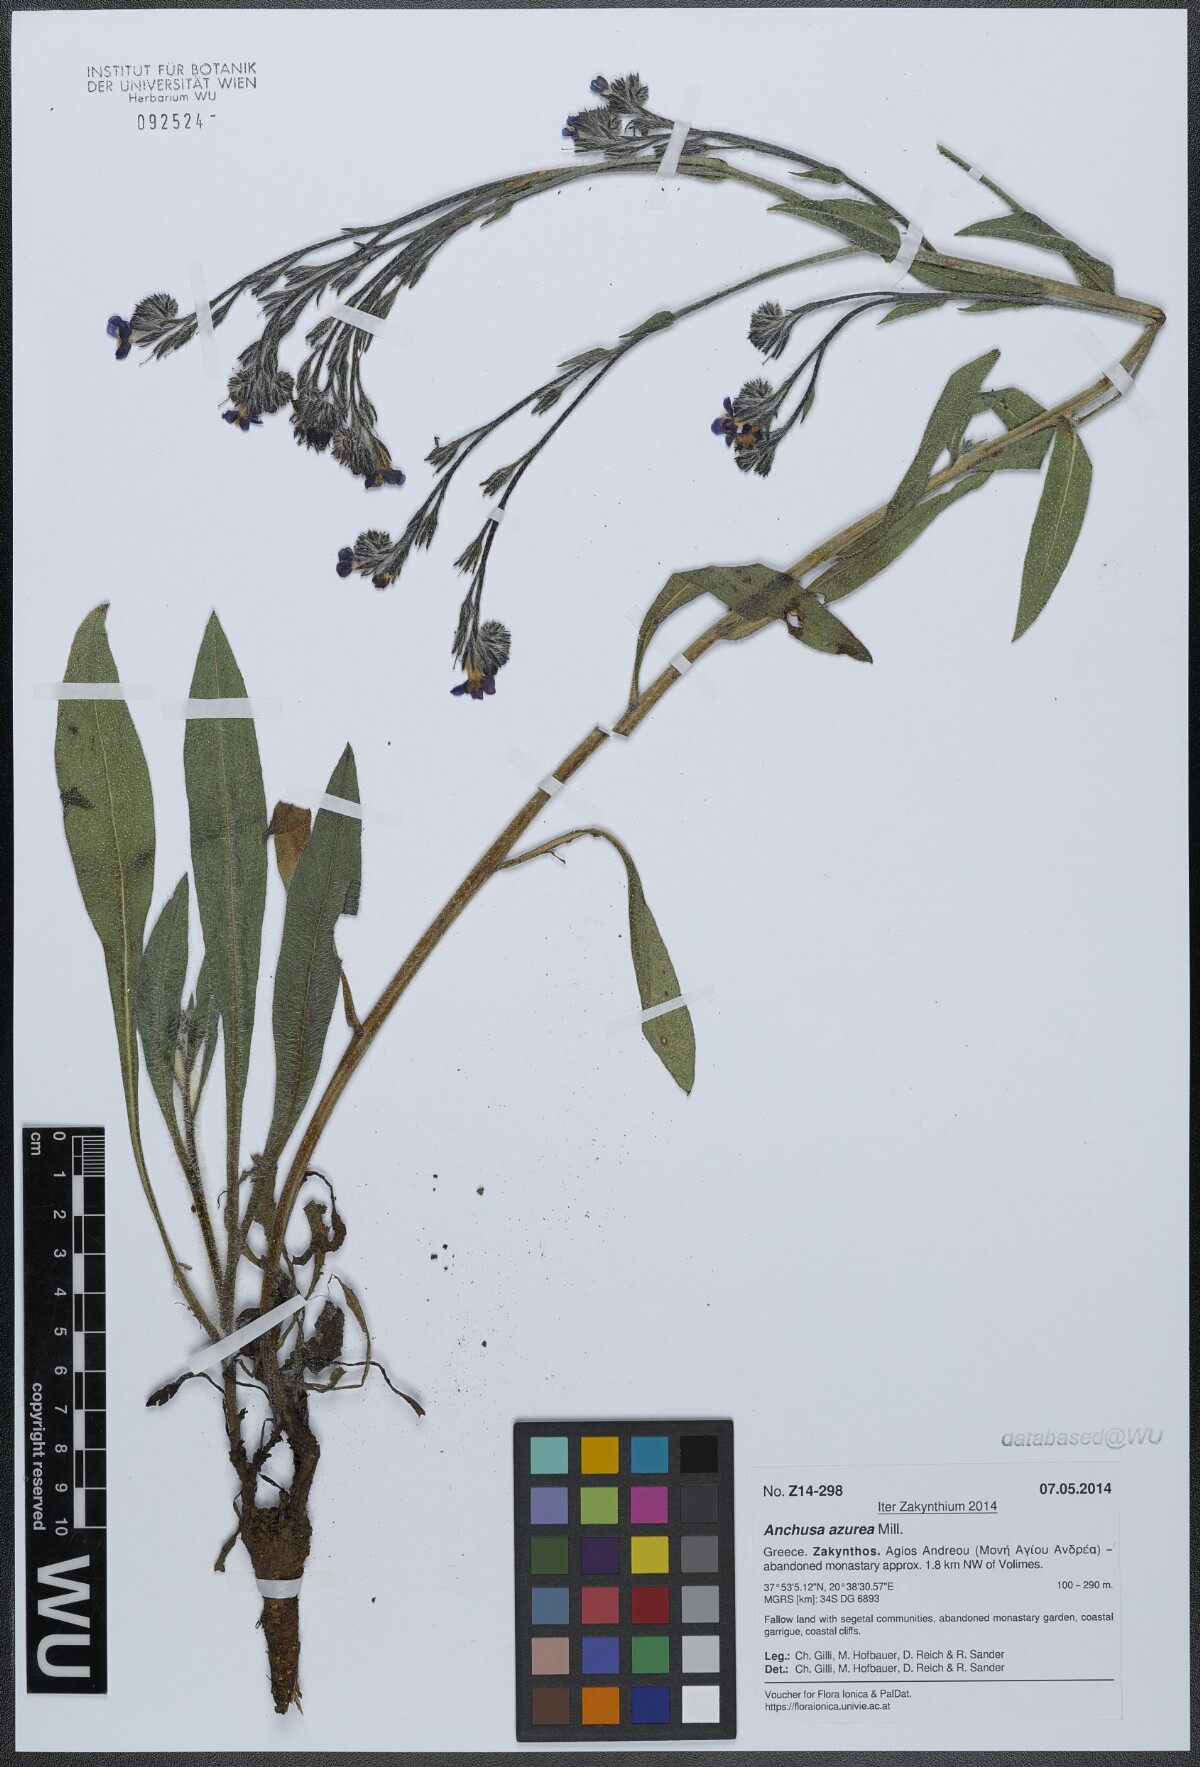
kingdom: Plantae
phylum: Tracheophyta
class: Magnoliopsida
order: Boraginales
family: Boraginaceae
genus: Anchusa
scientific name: Anchusa azurea
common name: Garden anchusa
